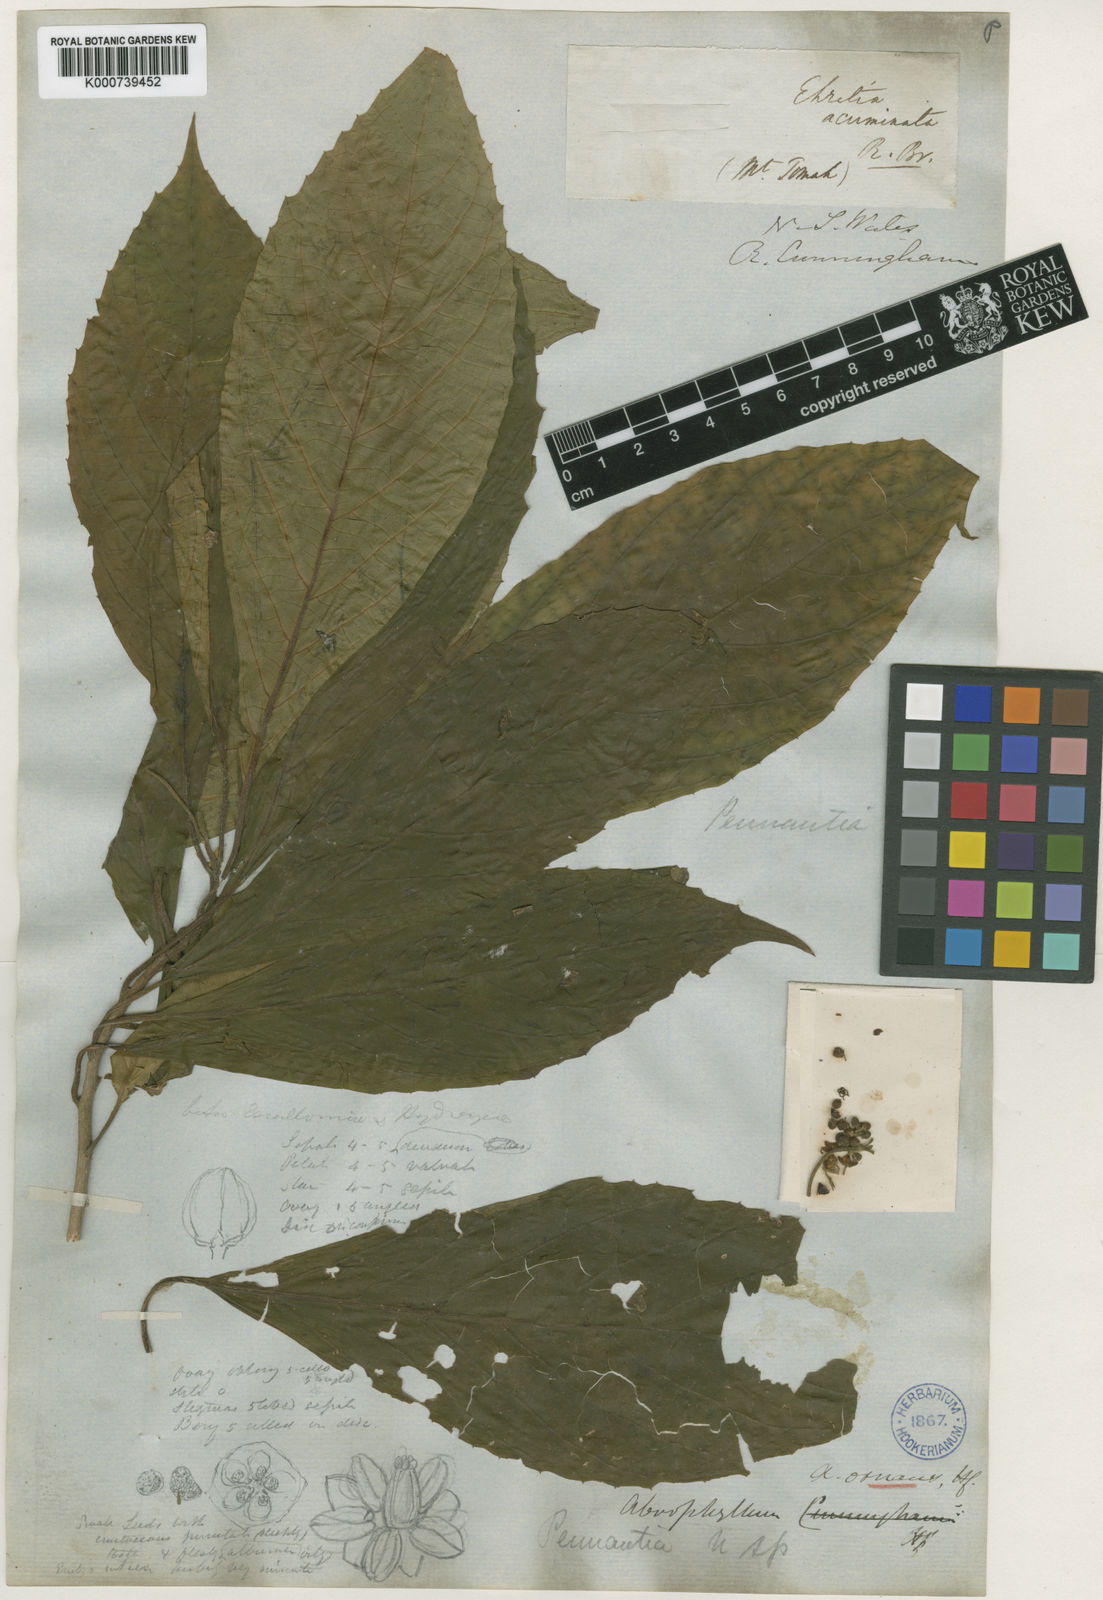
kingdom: Plantae
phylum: Tracheophyta
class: Magnoliopsida
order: Asterales
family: Rousseaceae
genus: Abrophyllum
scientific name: Abrophyllum ornans
